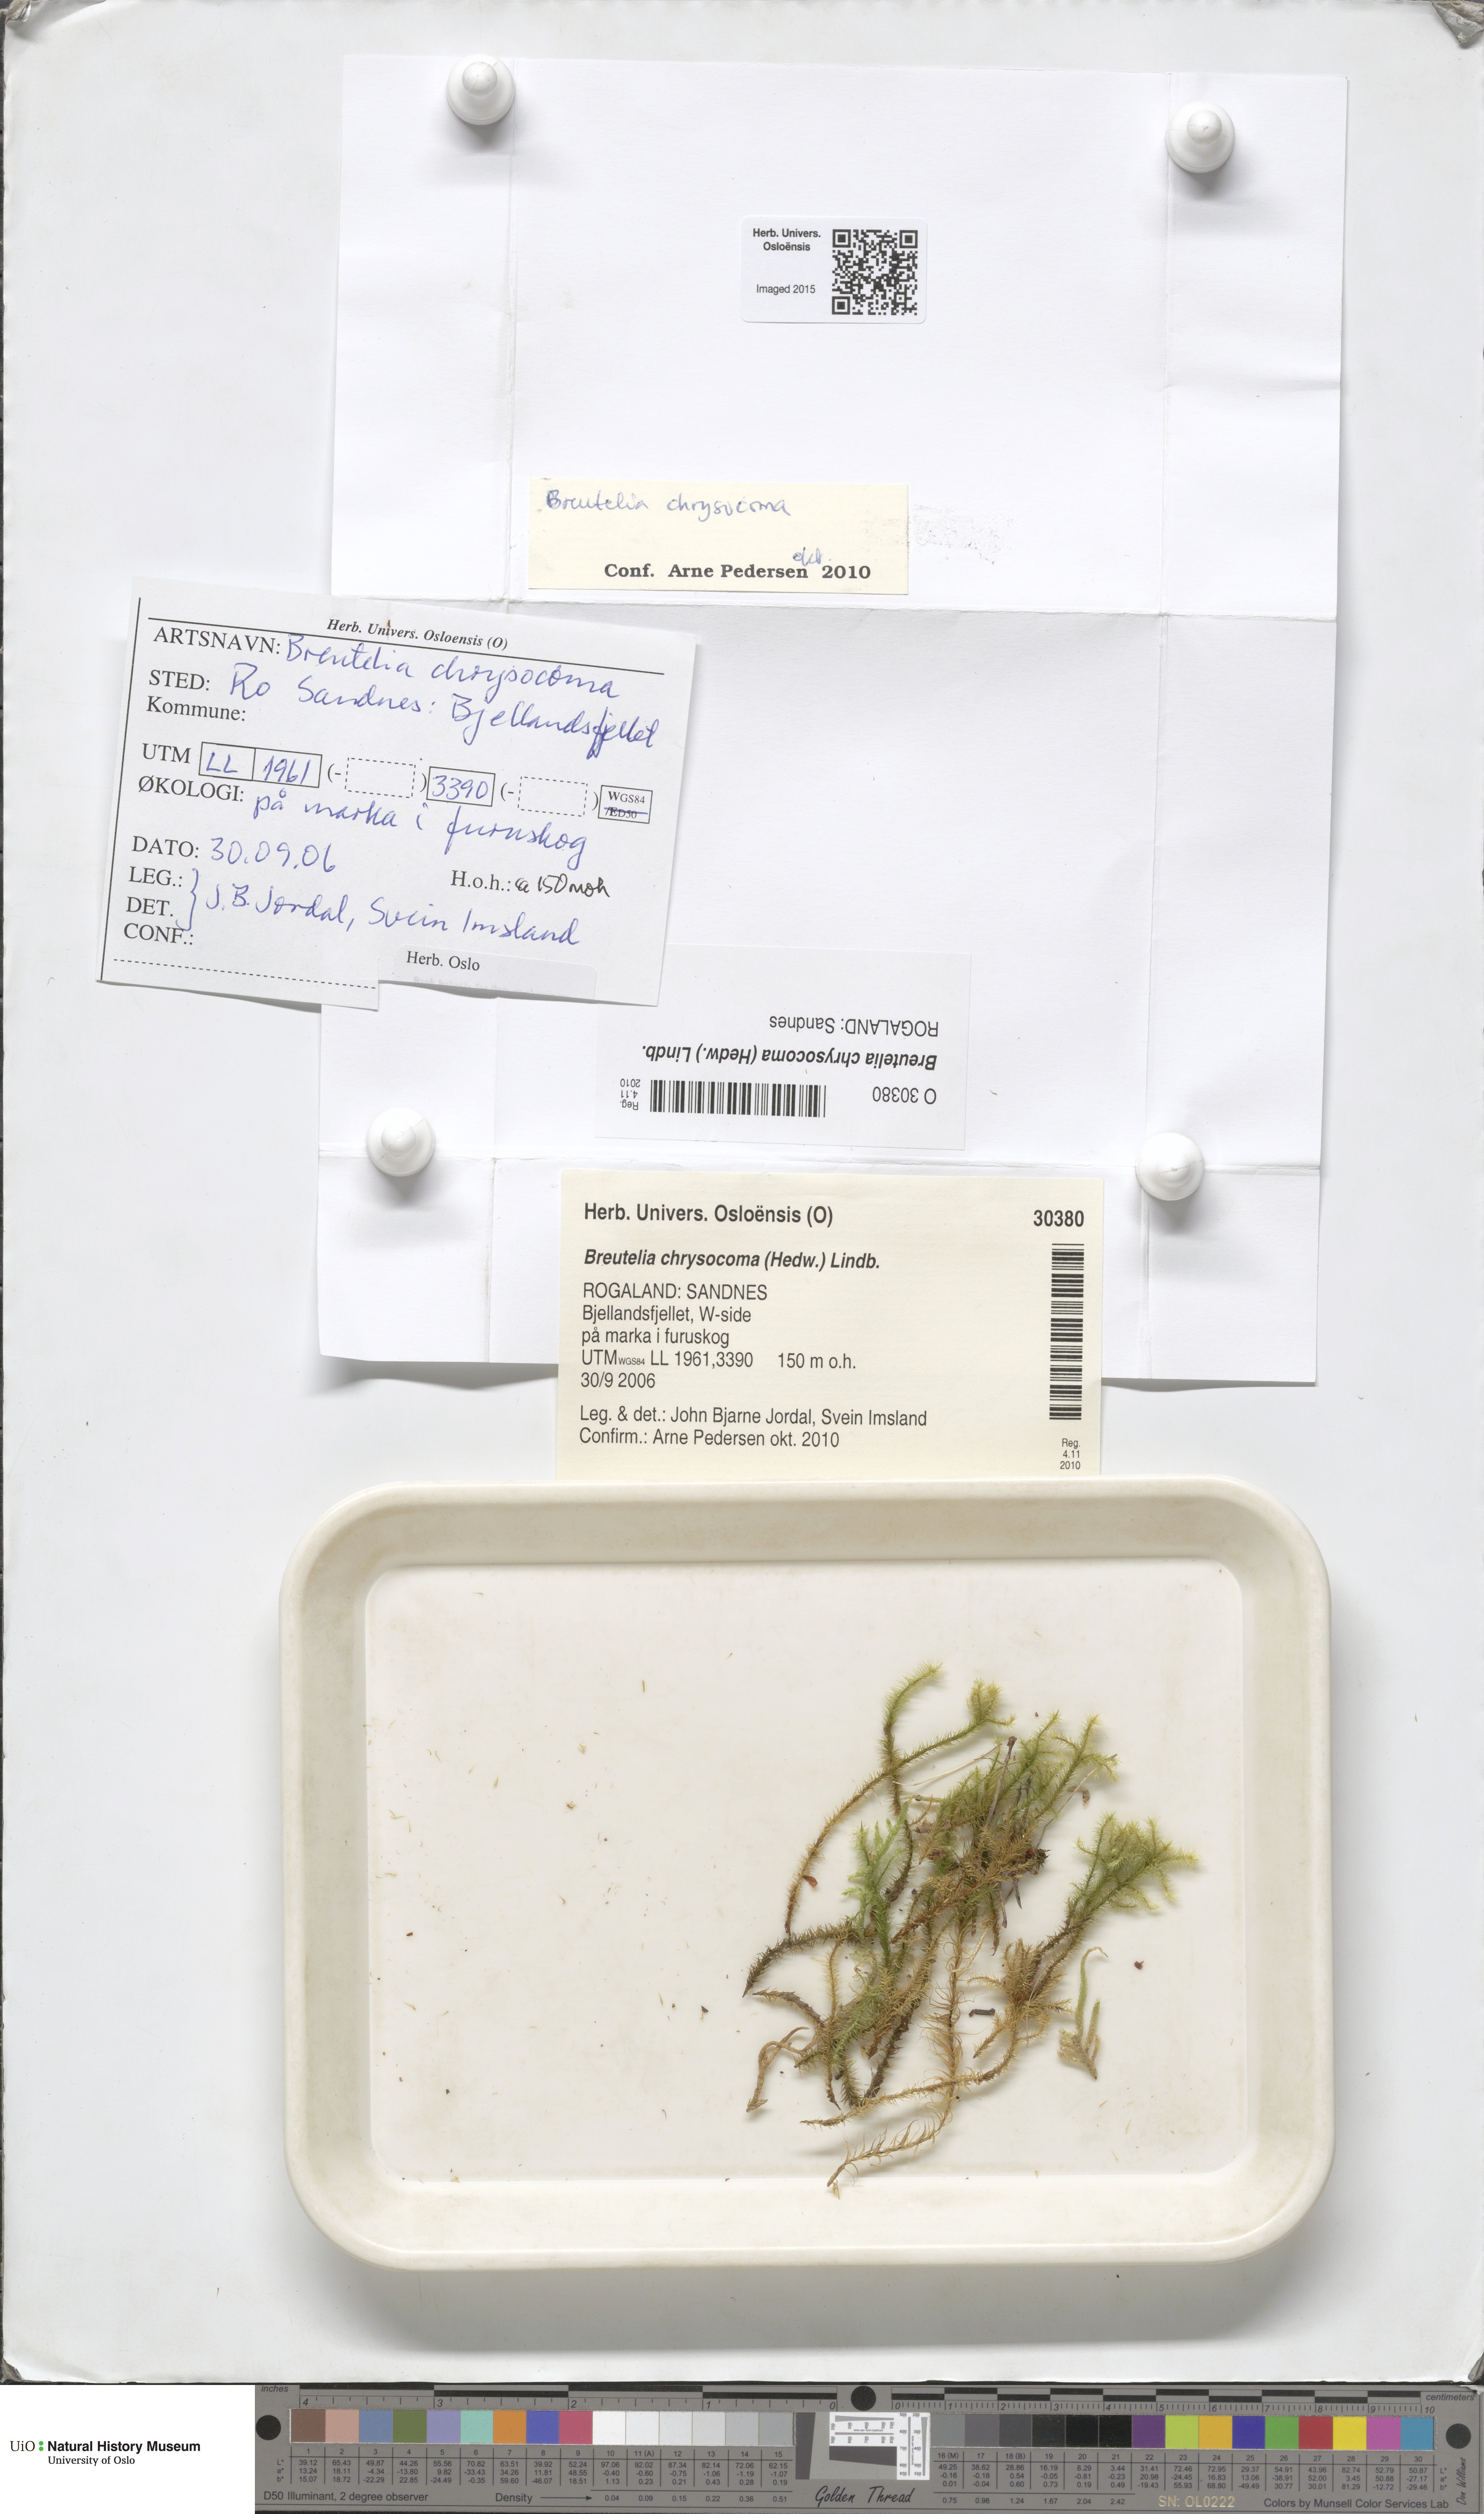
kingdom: Plantae
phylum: Bryophyta
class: Bryopsida
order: Bartramiales
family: Bartramiaceae
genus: Breutelia
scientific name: Breutelia chrysocoma
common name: Bottle-brush moss
